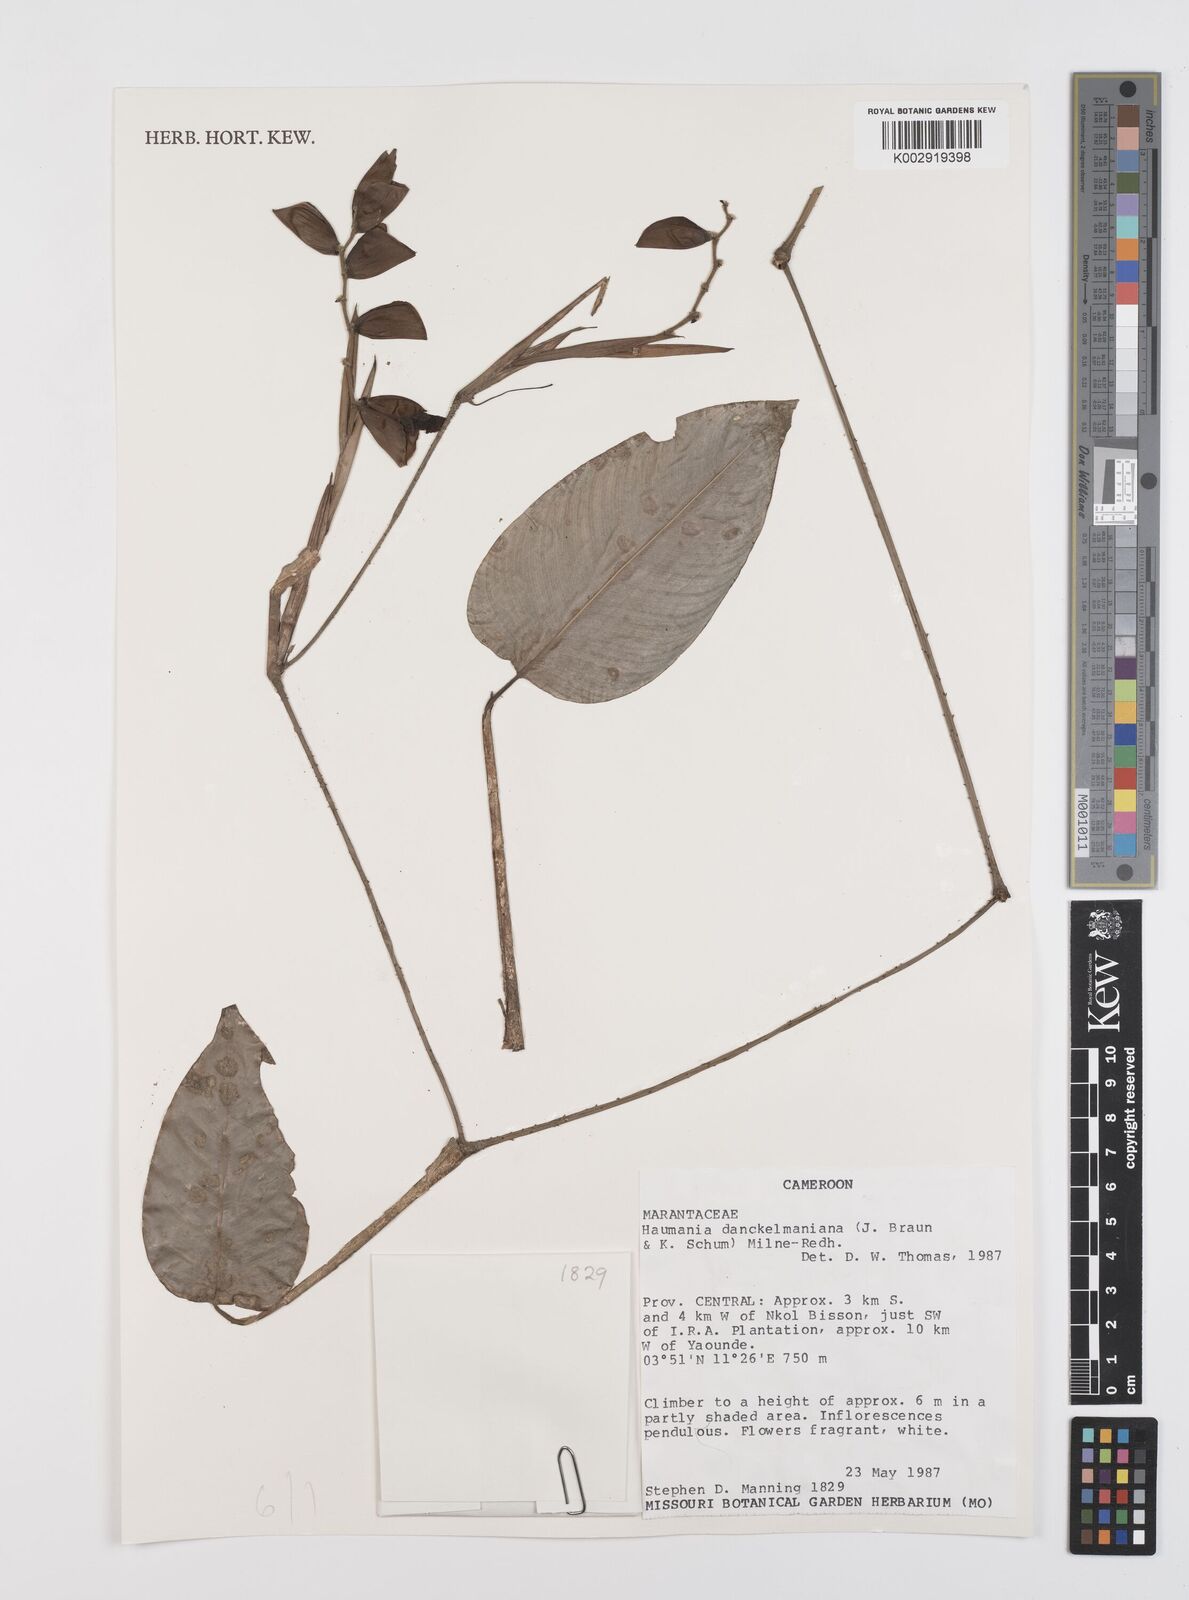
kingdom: Plantae
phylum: Tracheophyta
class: Liliopsida
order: Zingiberales
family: Marantaceae
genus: Haumania
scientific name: Haumania danckelmaniana
